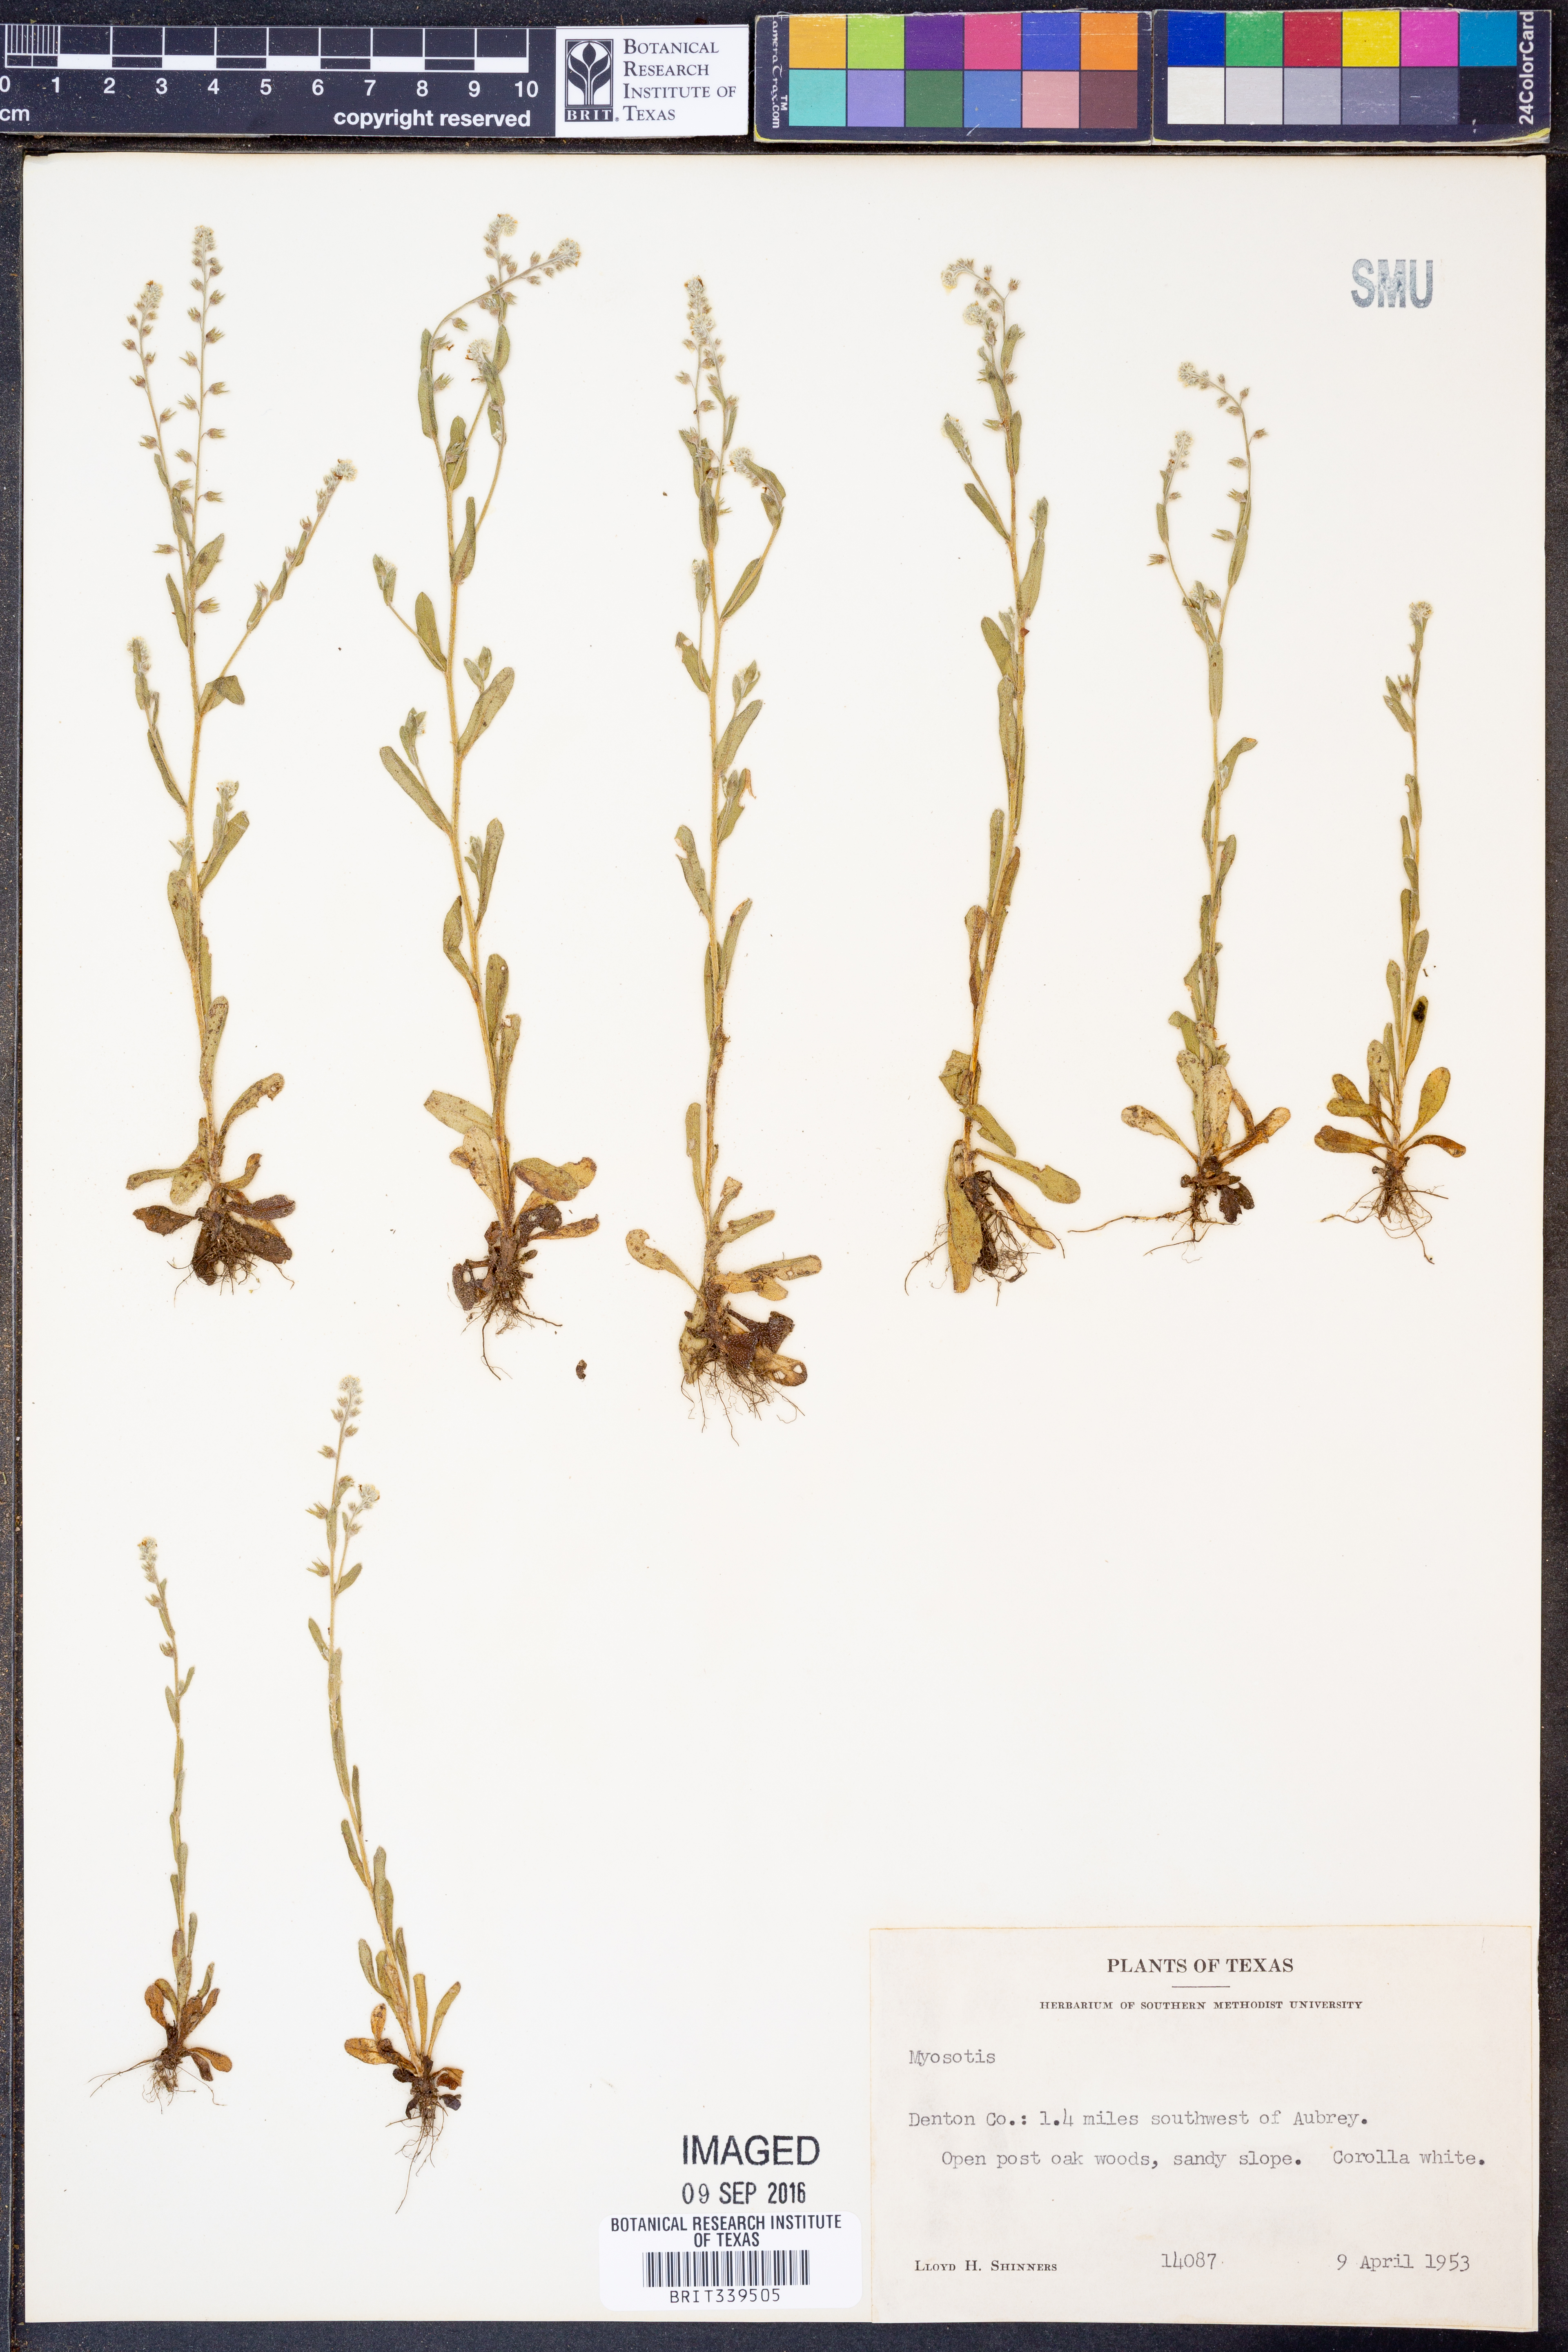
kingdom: Plantae
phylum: Tracheophyta
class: Magnoliopsida
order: Boraginales
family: Boraginaceae
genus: Myosotis
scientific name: Myosotis
